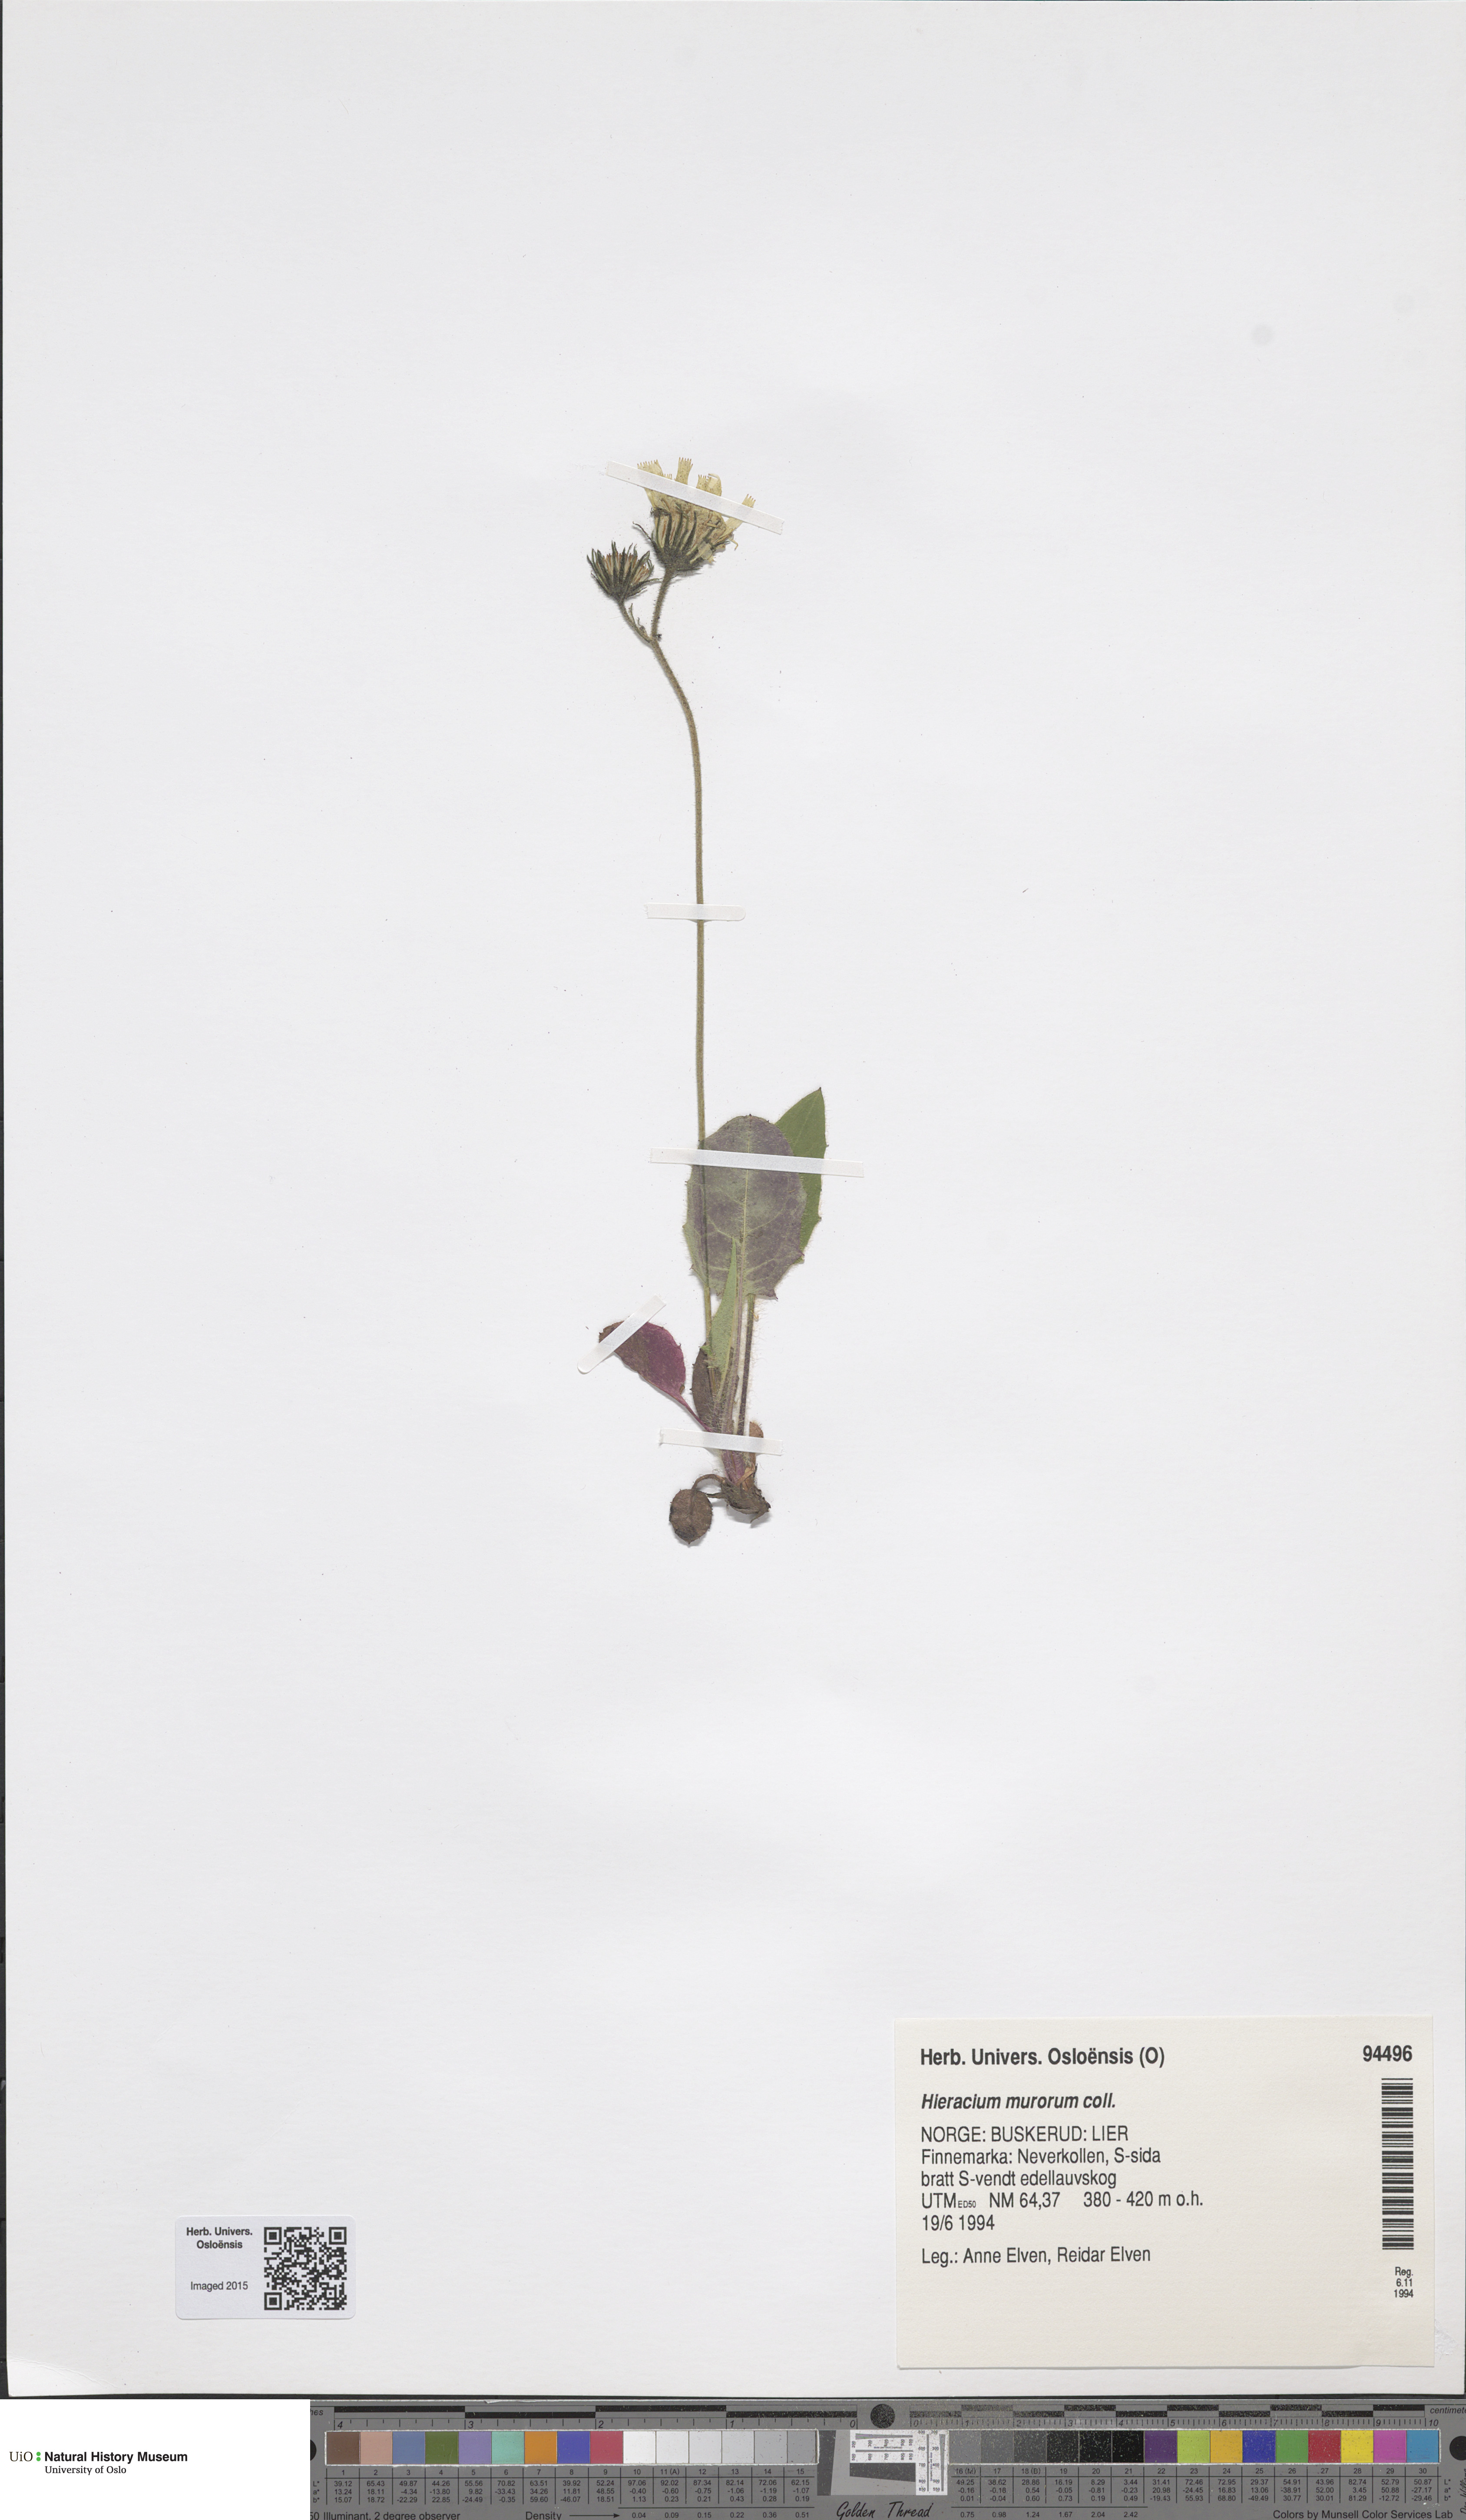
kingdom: Plantae
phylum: Tracheophyta
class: Magnoliopsida
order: Asterales
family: Asteraceae
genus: Hieracium
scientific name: Hieracium murorum
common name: Wall hawkweed
